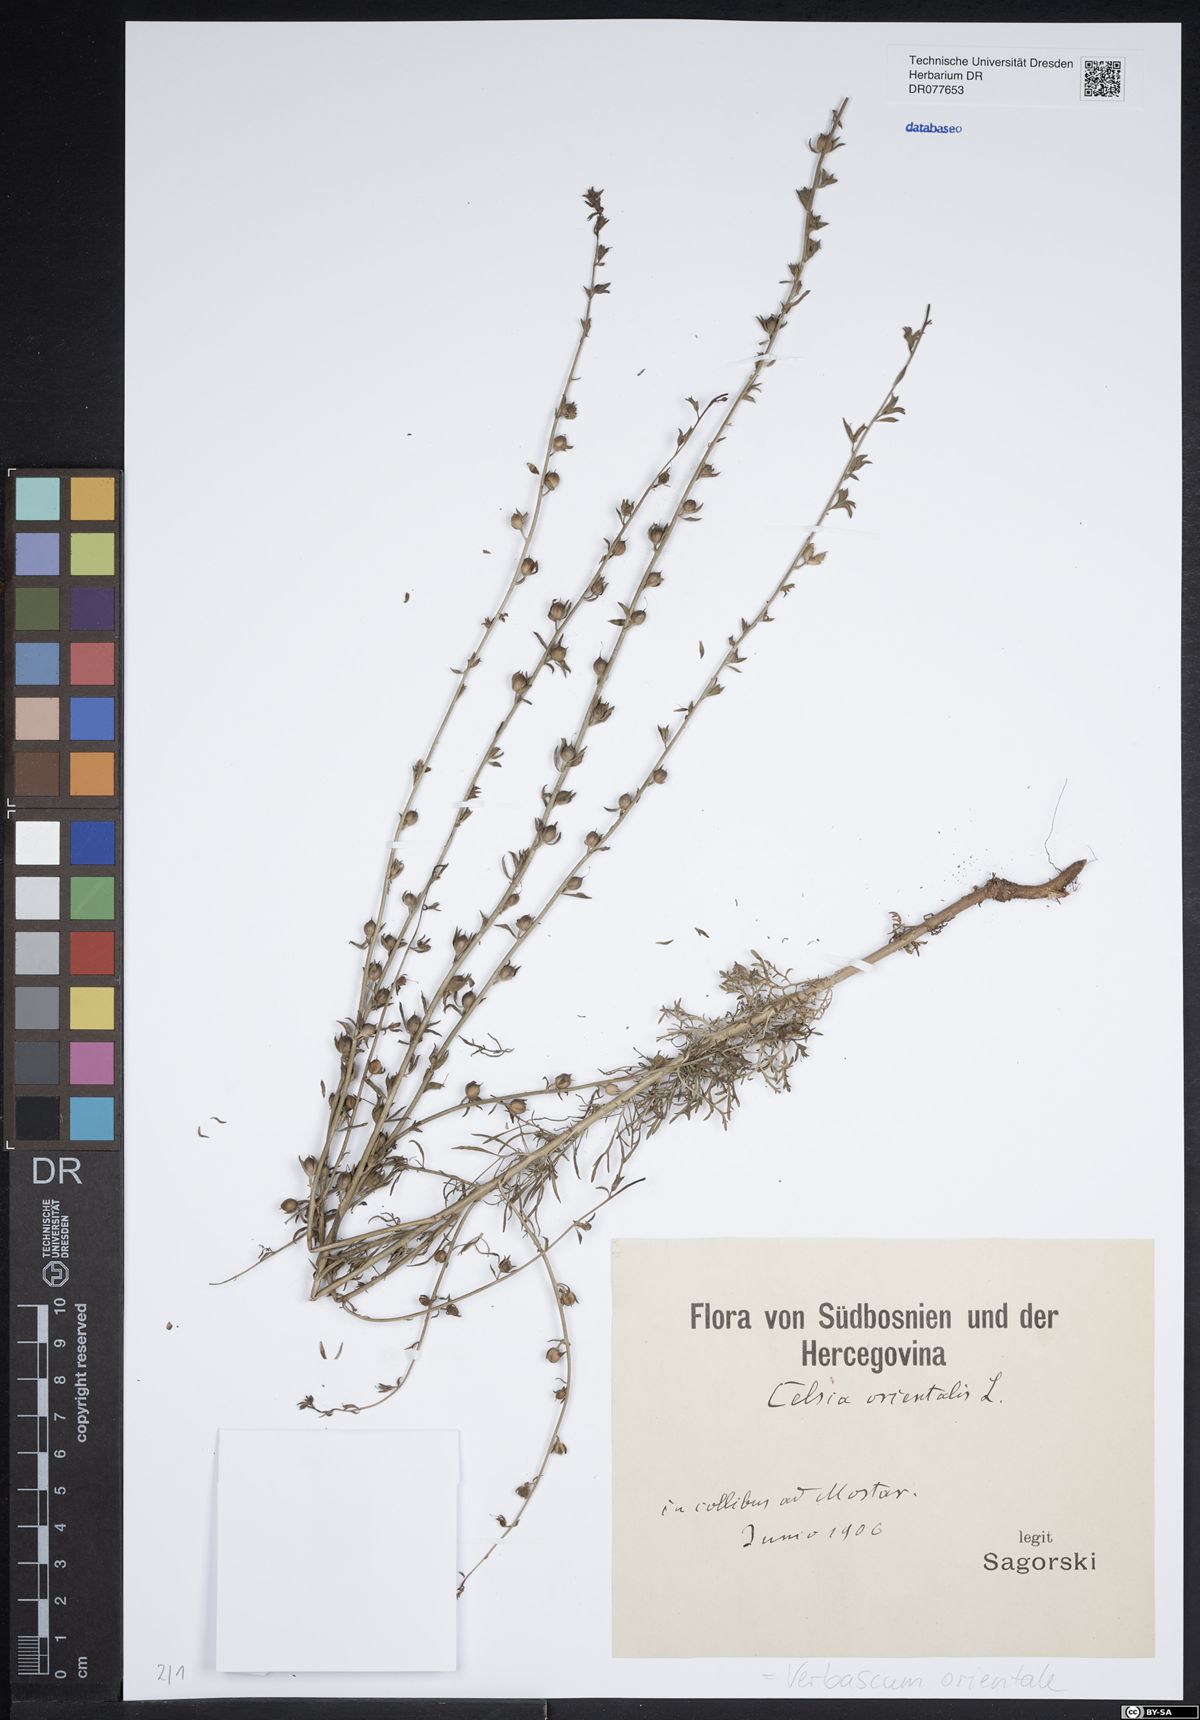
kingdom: Plantae
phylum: Tracheophyta
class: Magnoliopsida
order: Lamiales
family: Scrophulariaceae
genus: Verbascum
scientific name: Verbascum orientale
